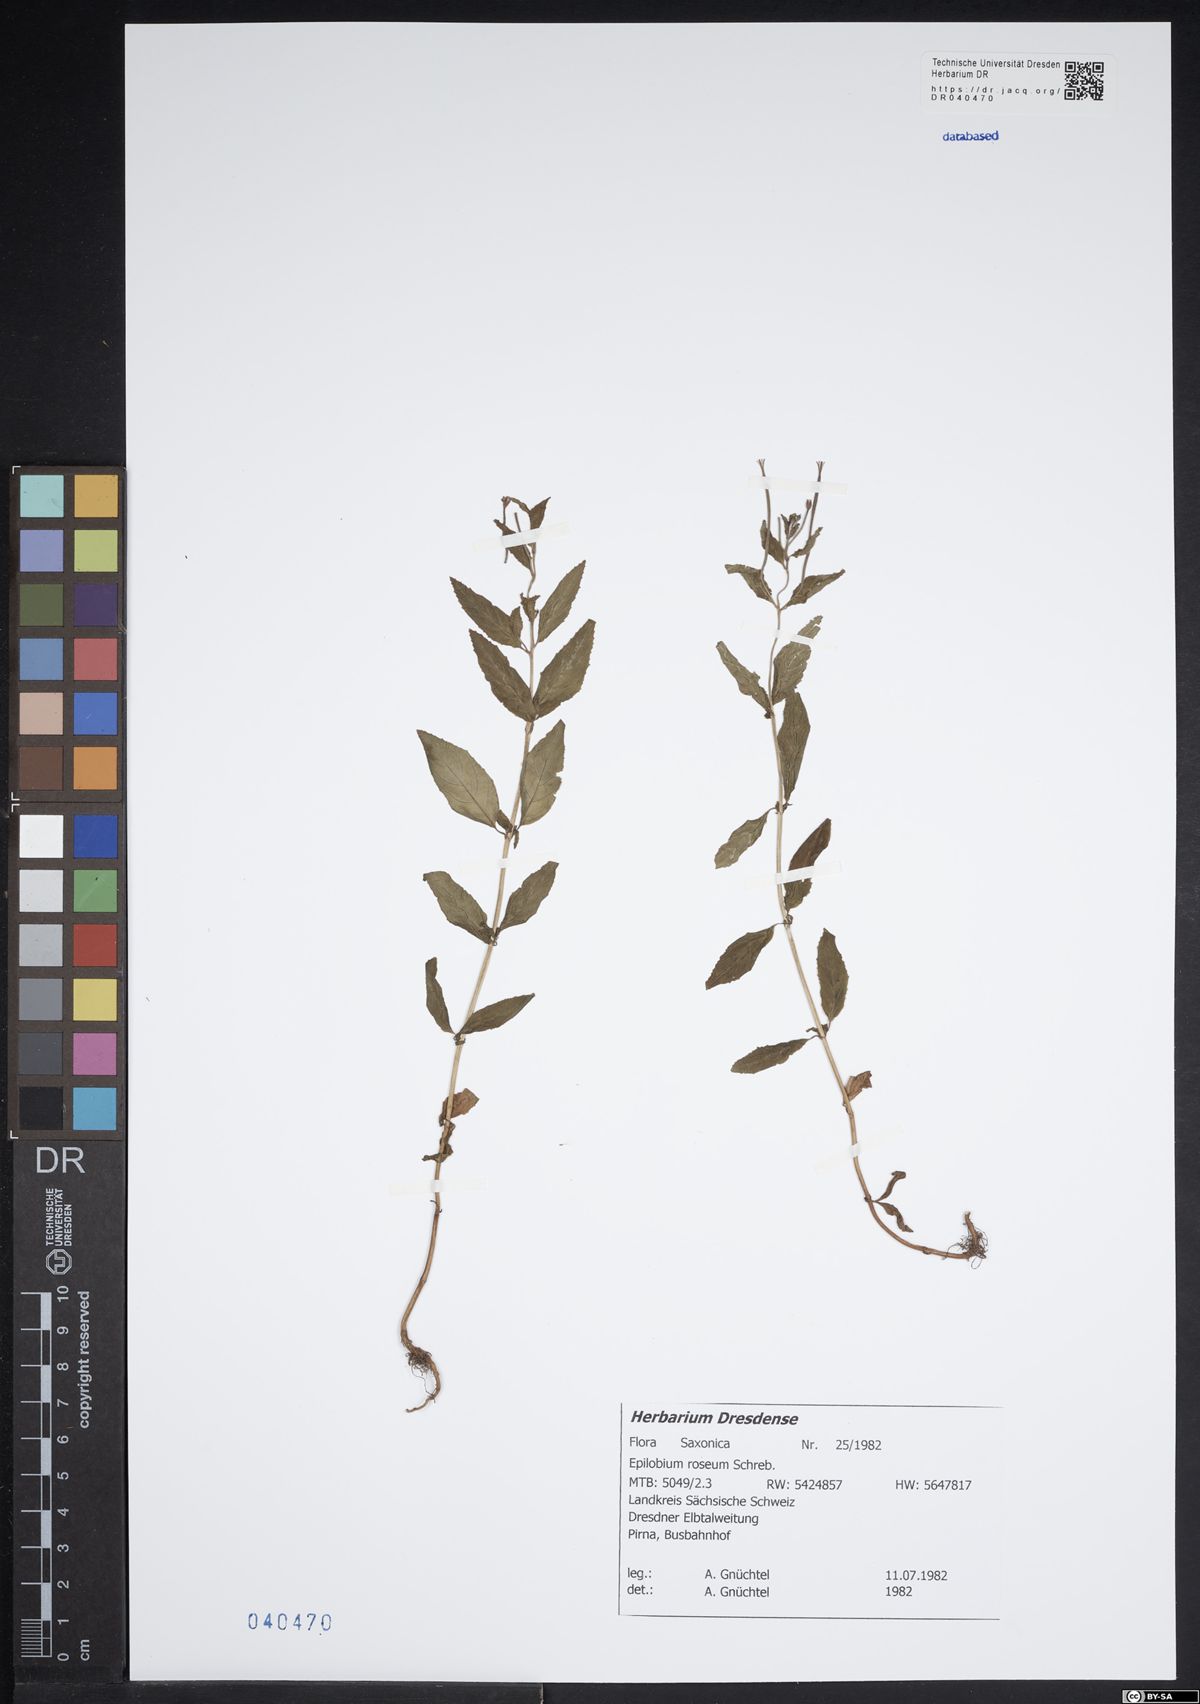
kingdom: Plantae
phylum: Tracheophyta
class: Magnoliopsida
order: Myrtales
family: Onagraceae
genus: Epilobium
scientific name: Epilobium roseum
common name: Pale willowherb
